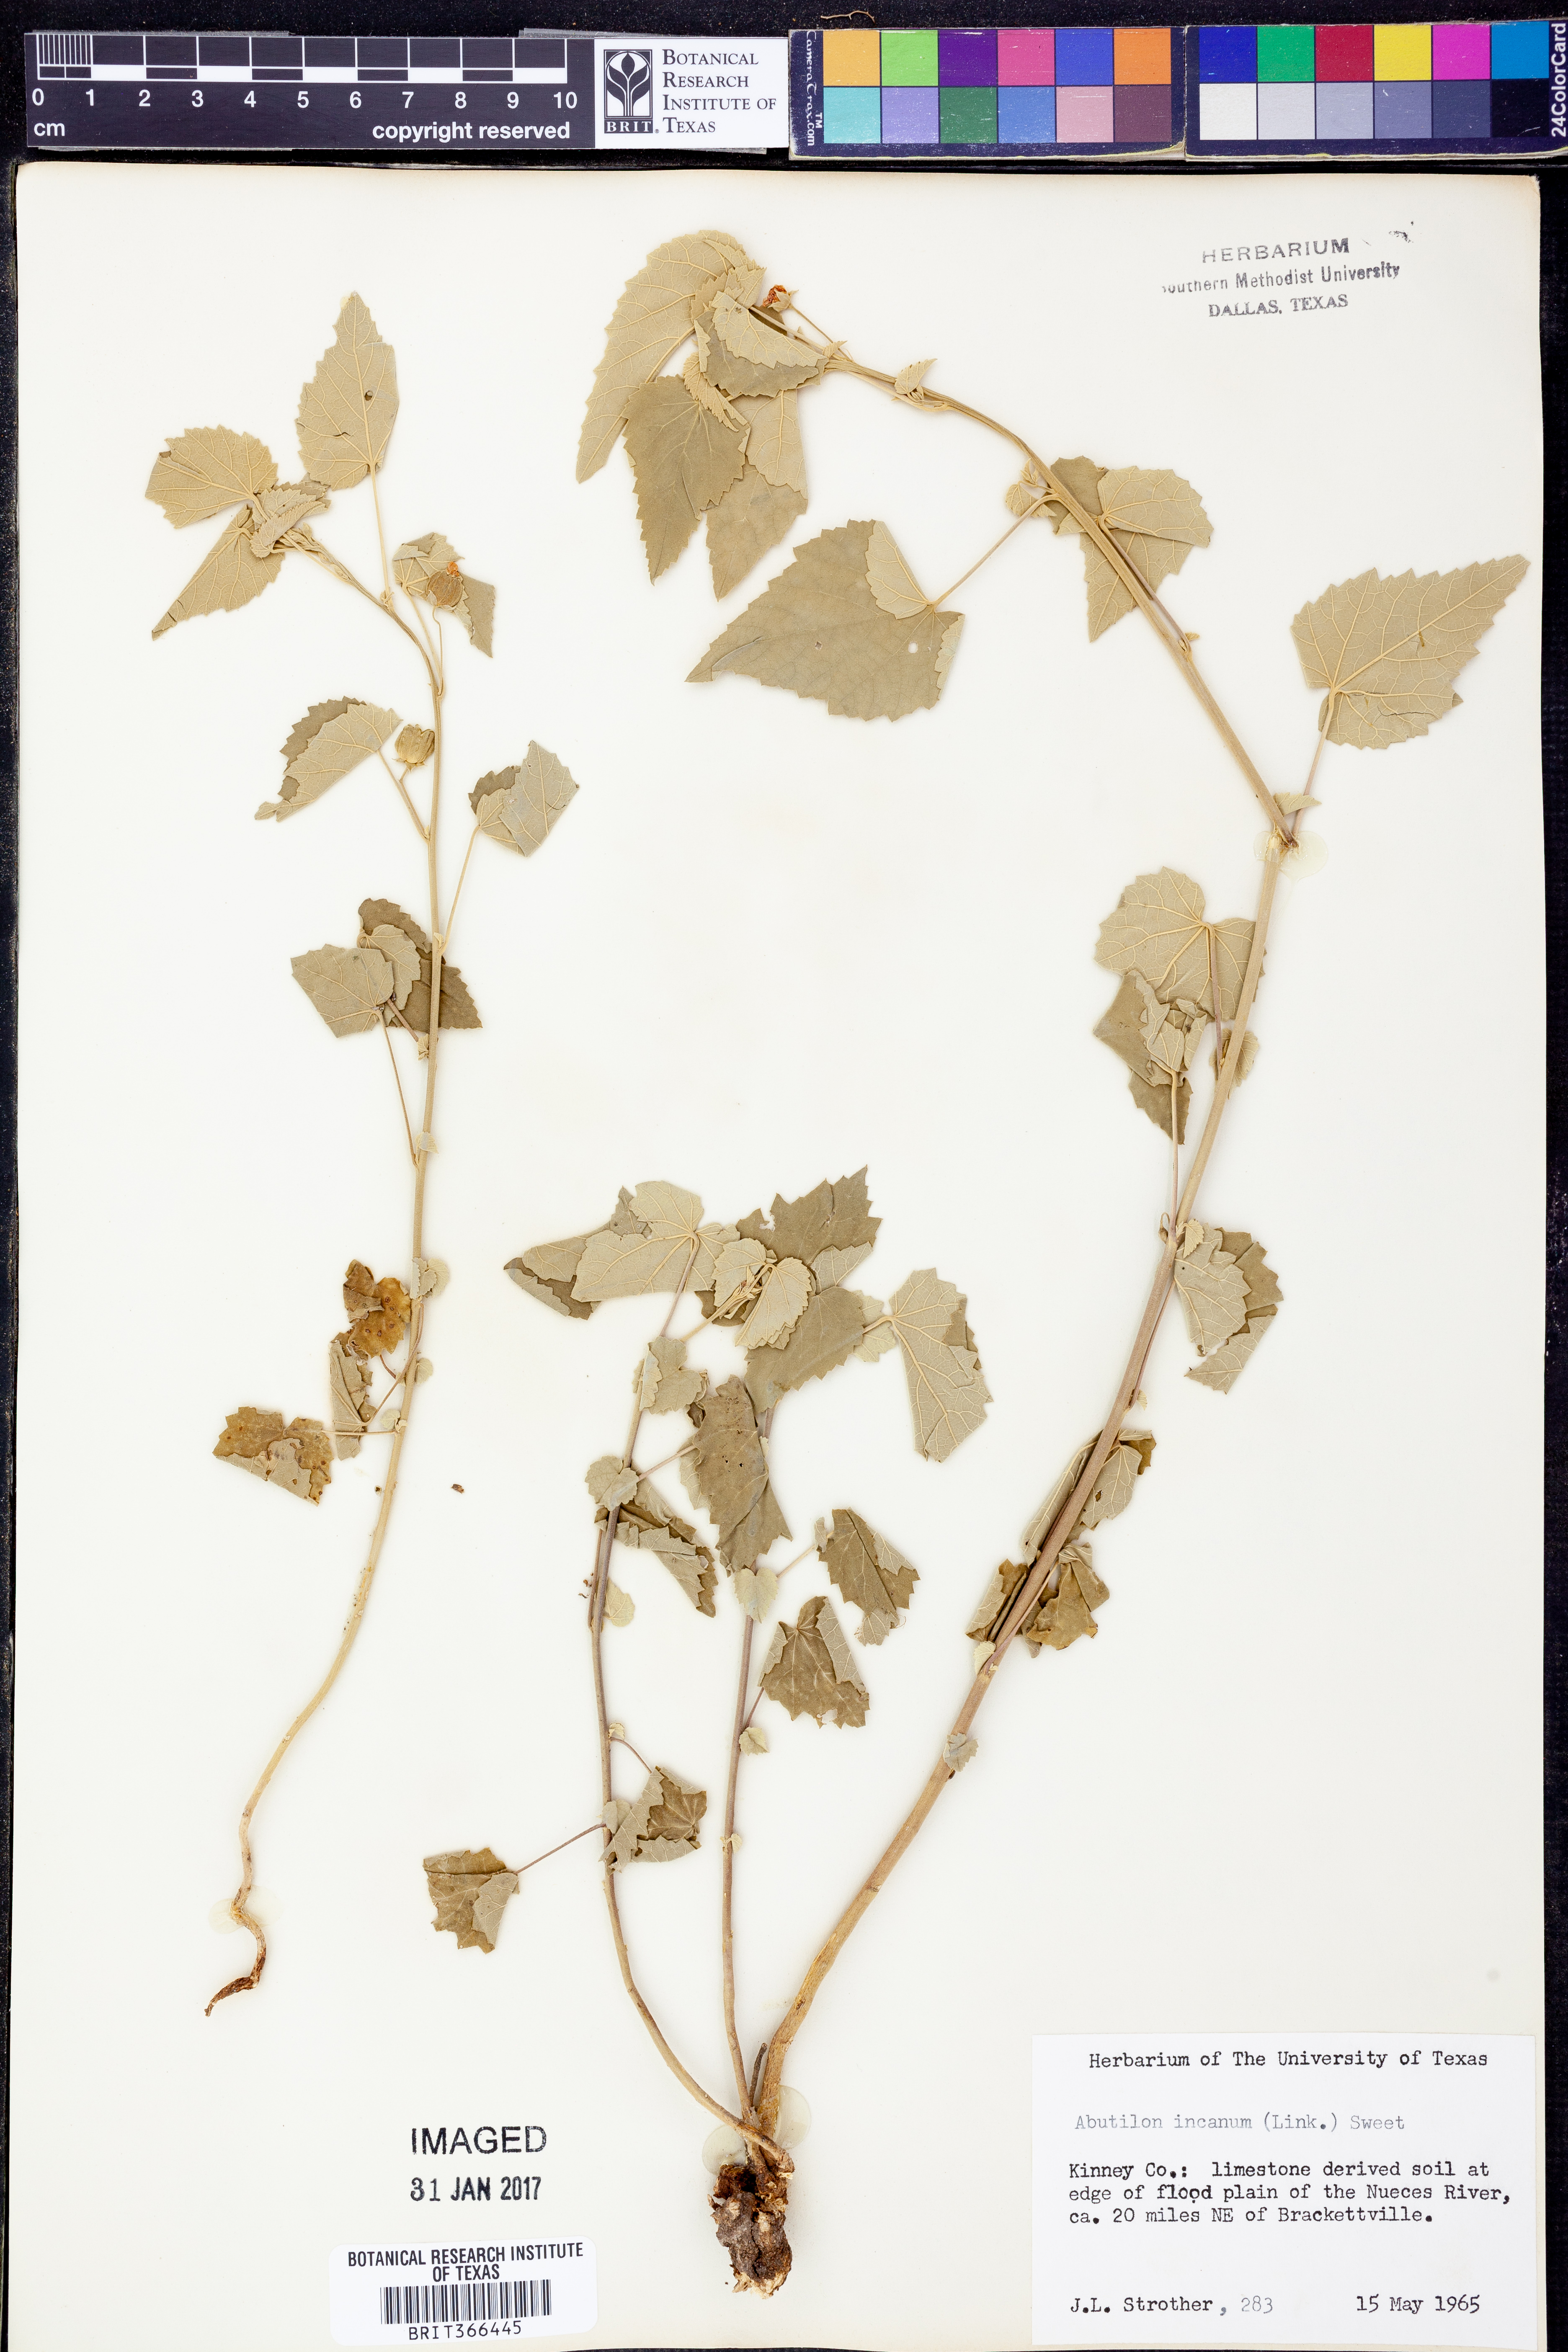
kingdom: Plantae
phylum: Tracheophyta
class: Magnoliopsida
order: Malvales
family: Malvaceae
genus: Abutilon
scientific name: Abutilon incanum
